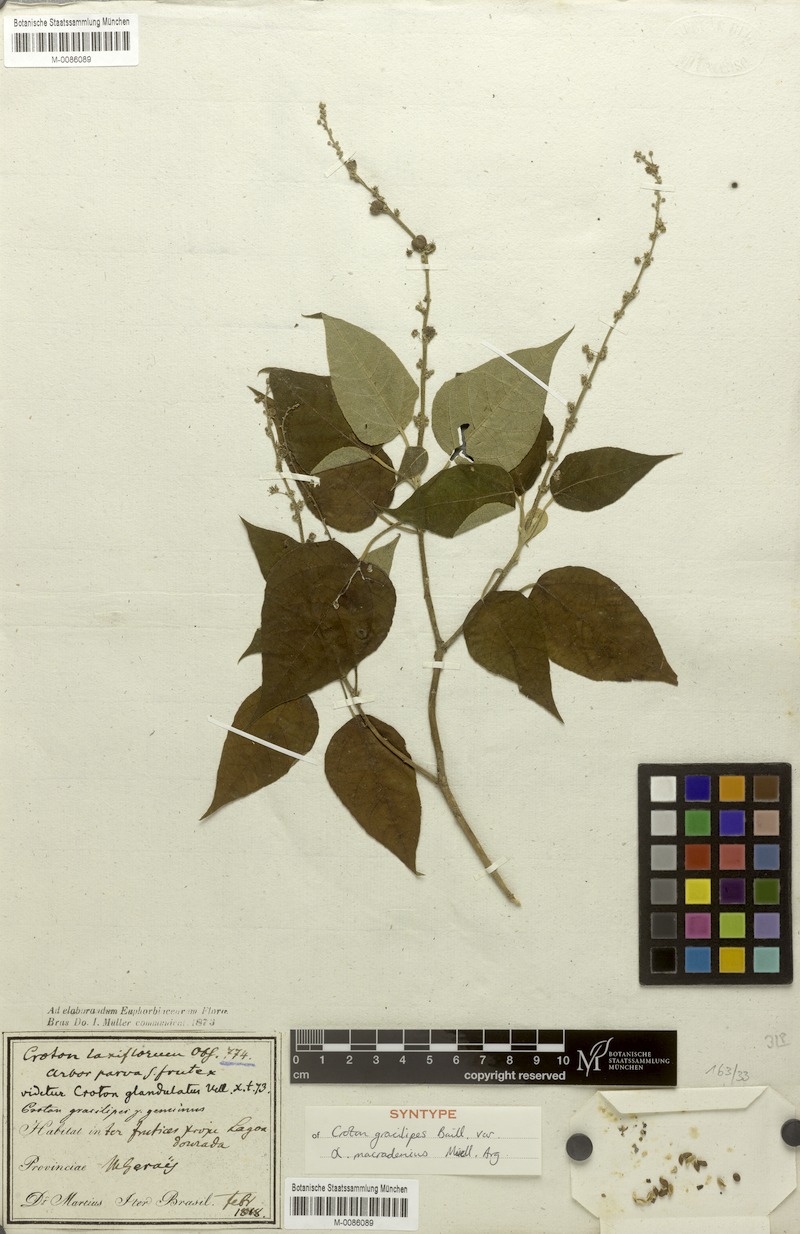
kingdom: Plantae
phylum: Tracheophyta
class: Magnoliopsida
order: Malpighiales
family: Euphorbiaceae
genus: Croton
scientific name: Croton gracilipes
